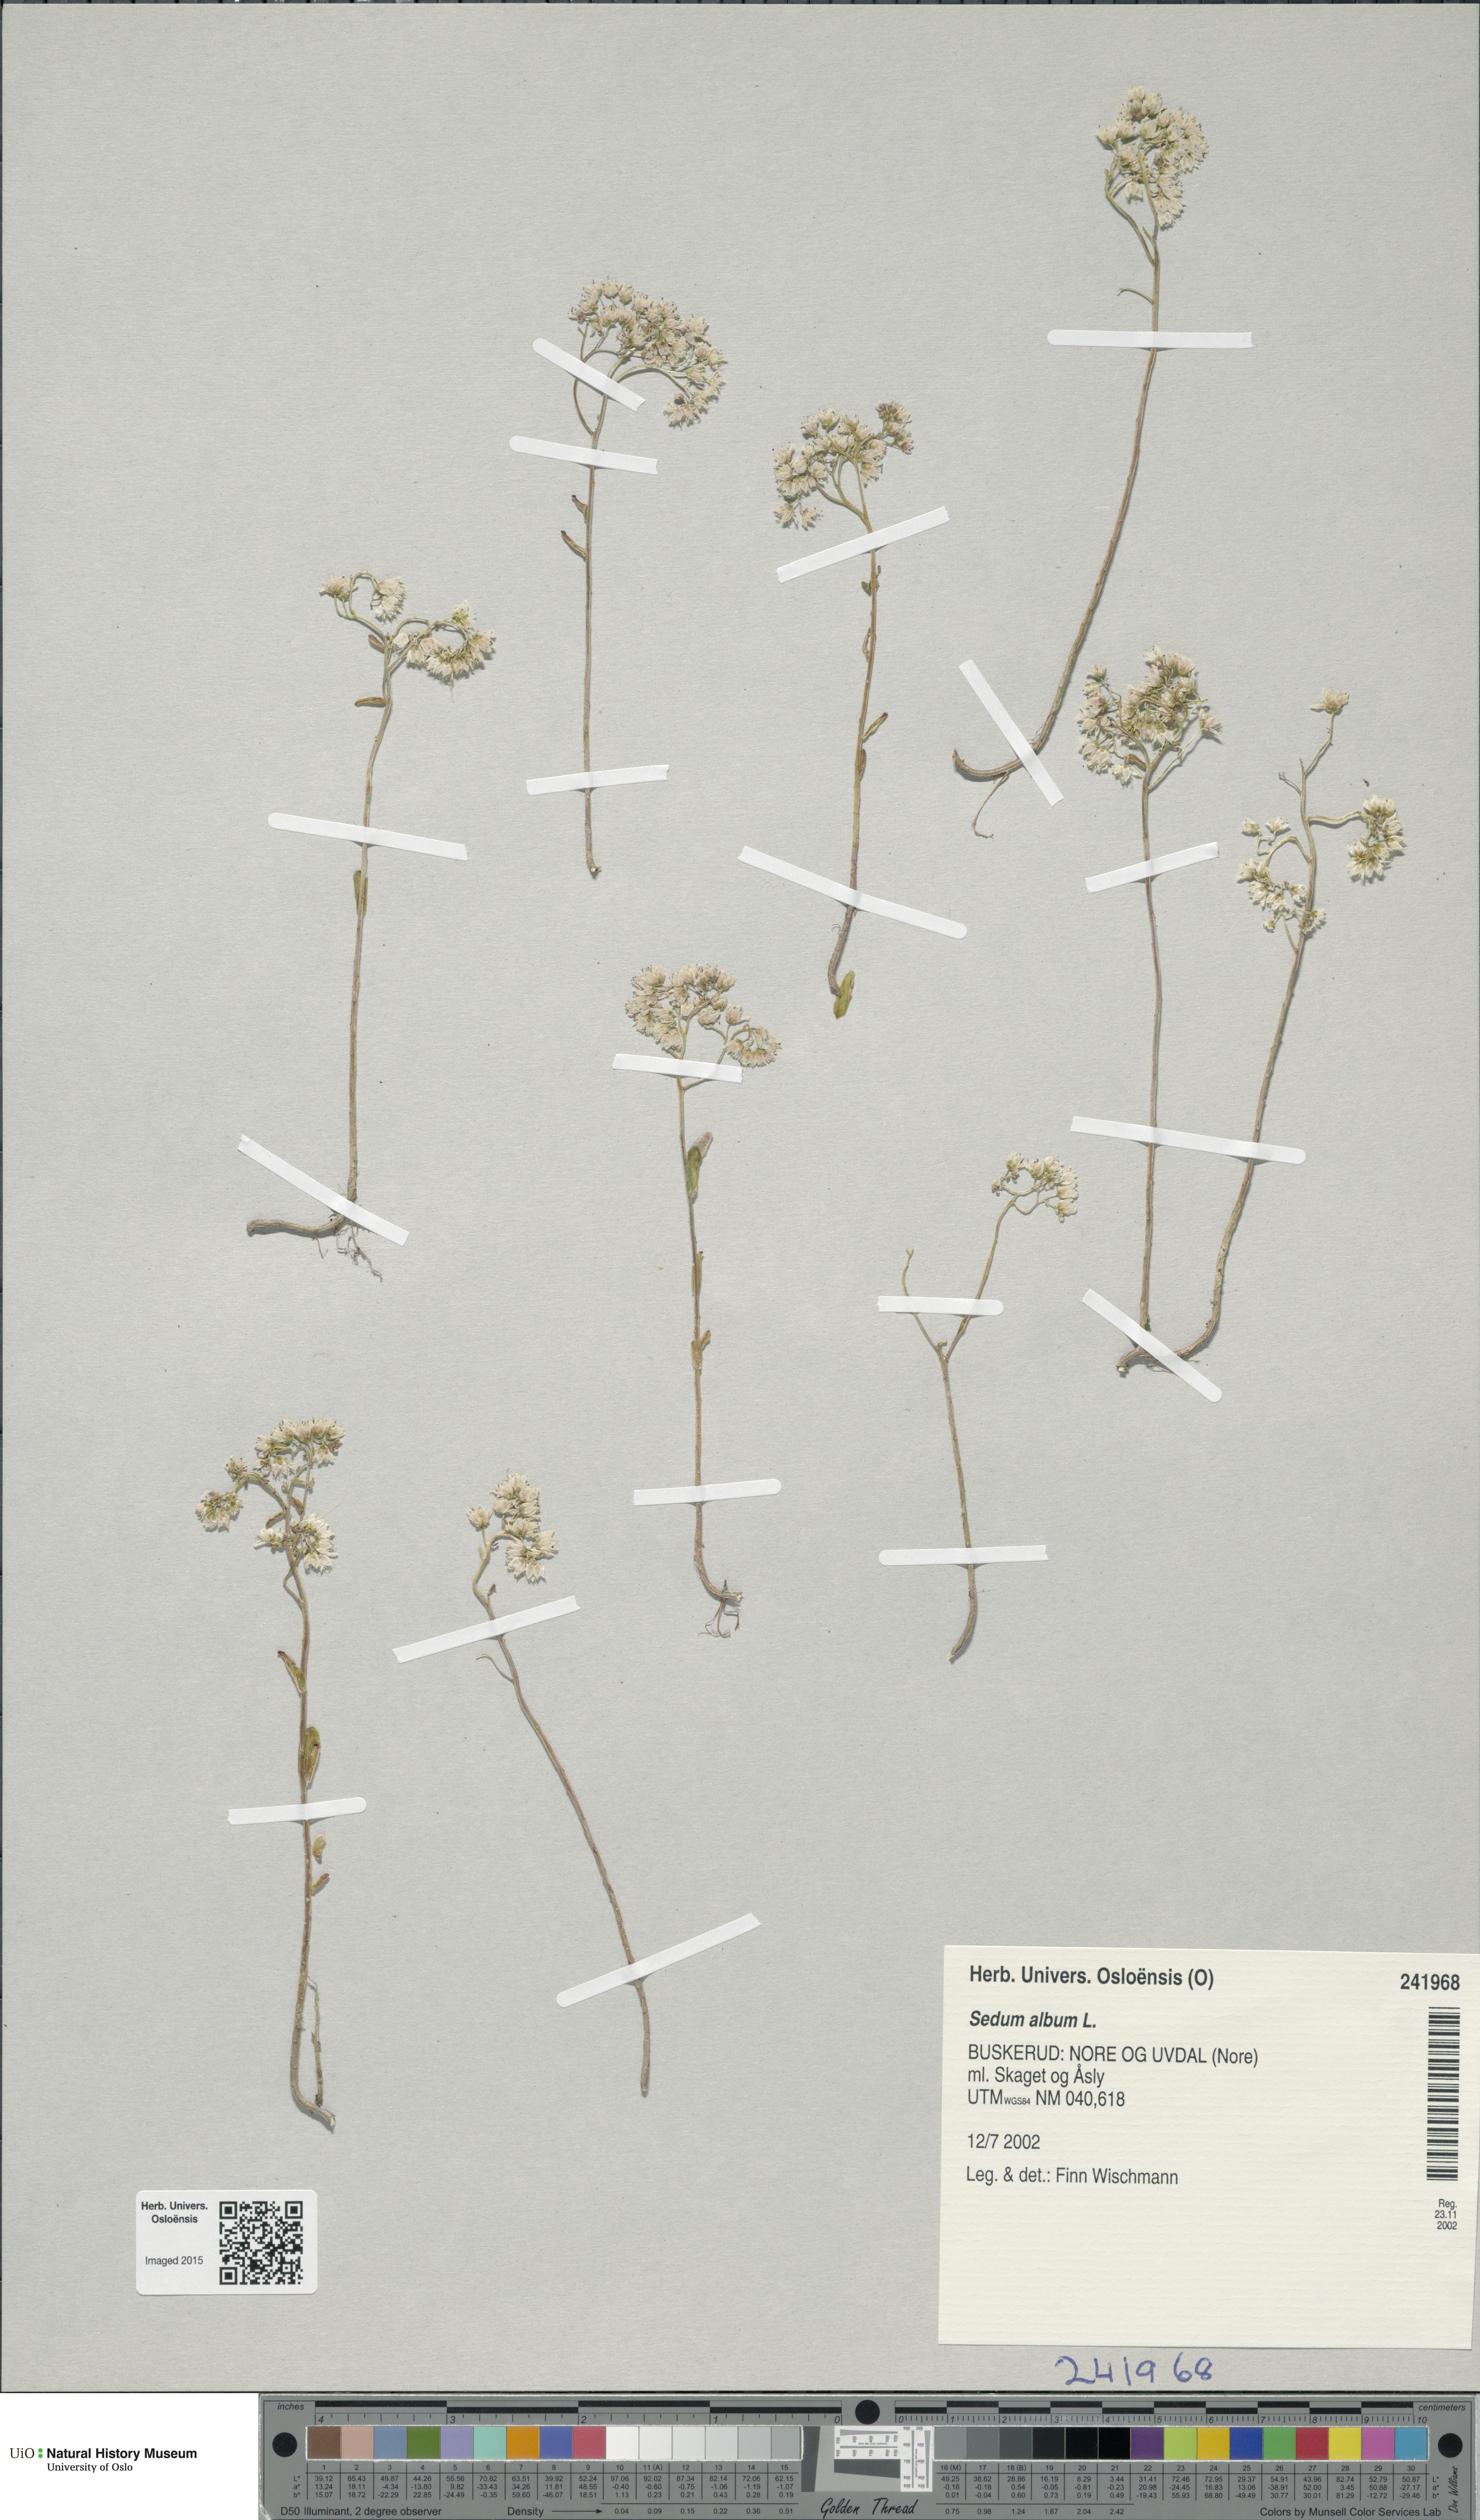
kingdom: Plantae
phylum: Tracheophyta
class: Magnoliopsida
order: Saxifragales
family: Crassulaceae
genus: Sedum
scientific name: Sedum album
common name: White stonecrop
